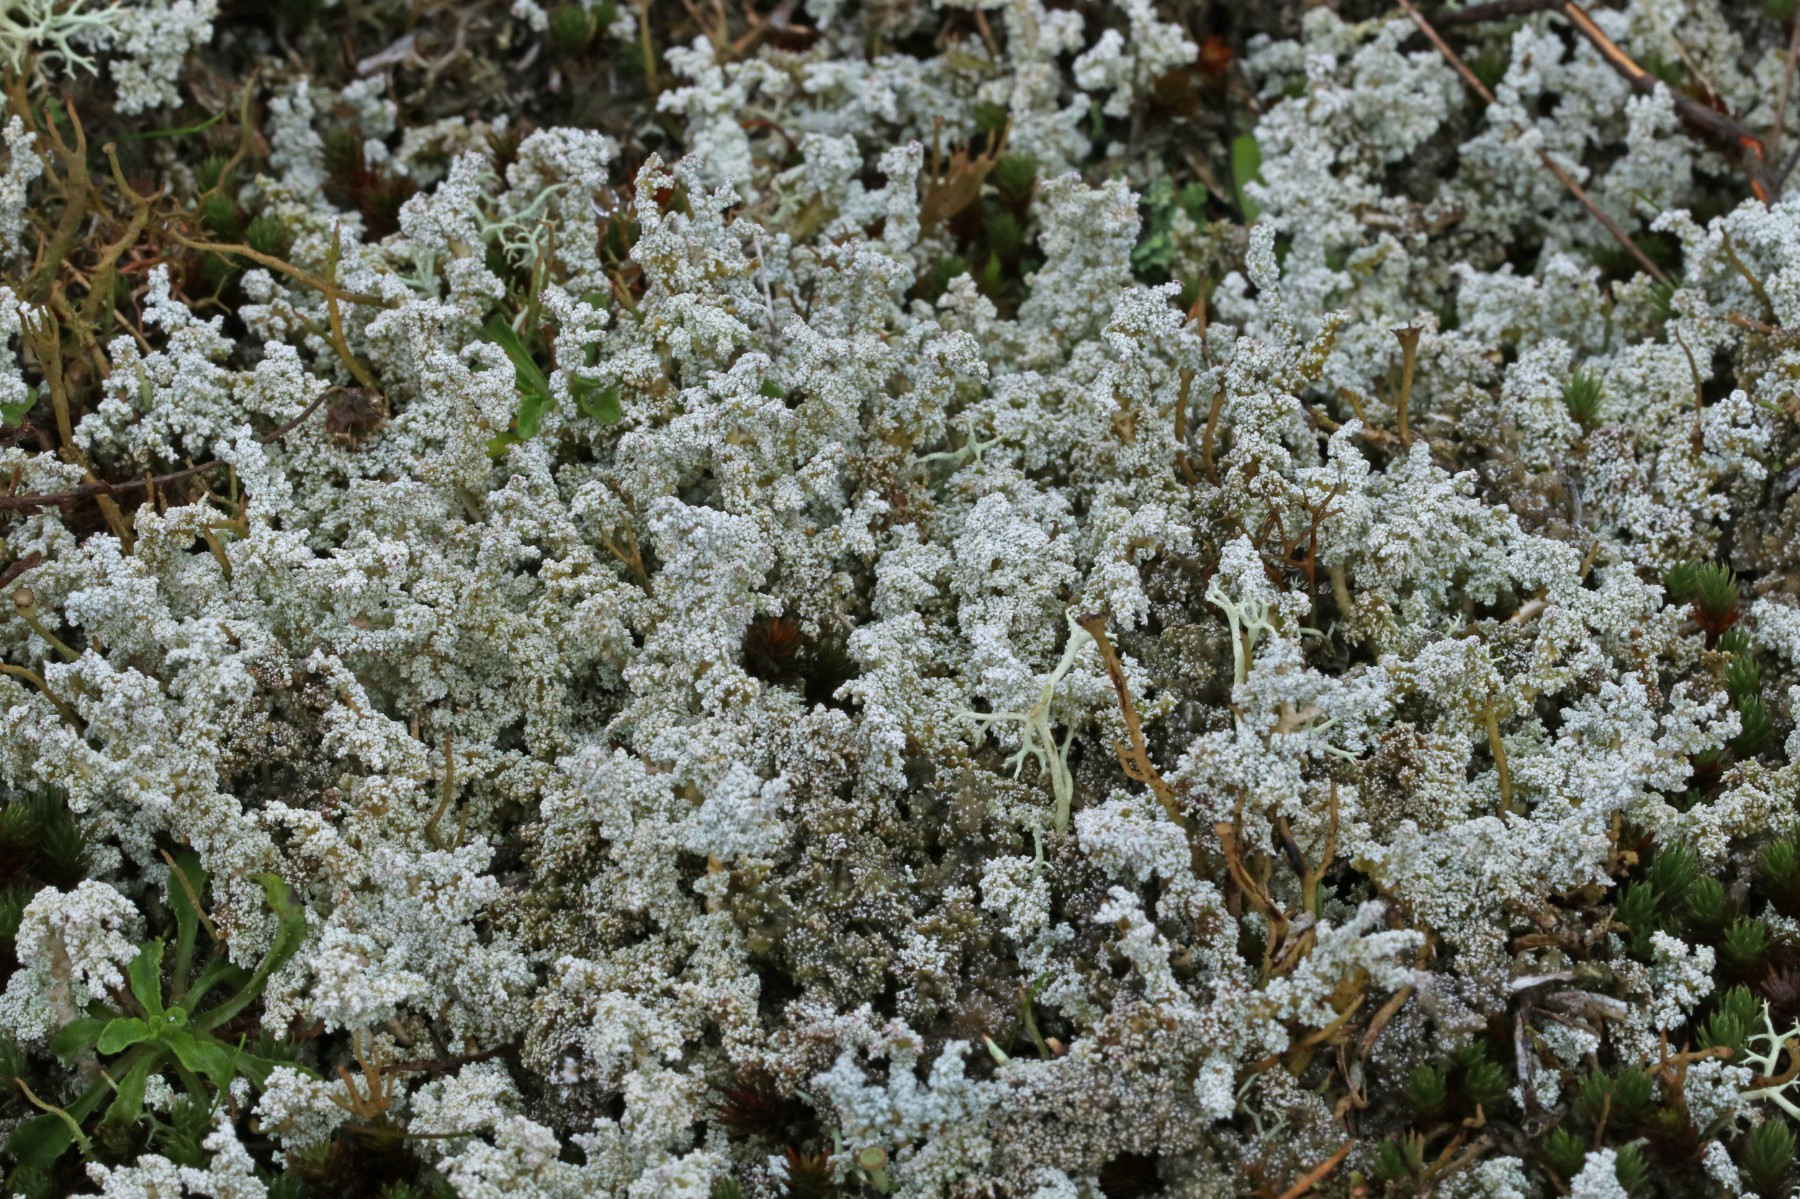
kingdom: Fungi
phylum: Ascomycota
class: Lecanoromycetes
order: Lecanorales
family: Stereocaulaceae
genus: Stereocaulon
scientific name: Stereocaulon saxatile
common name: klit-korallav
